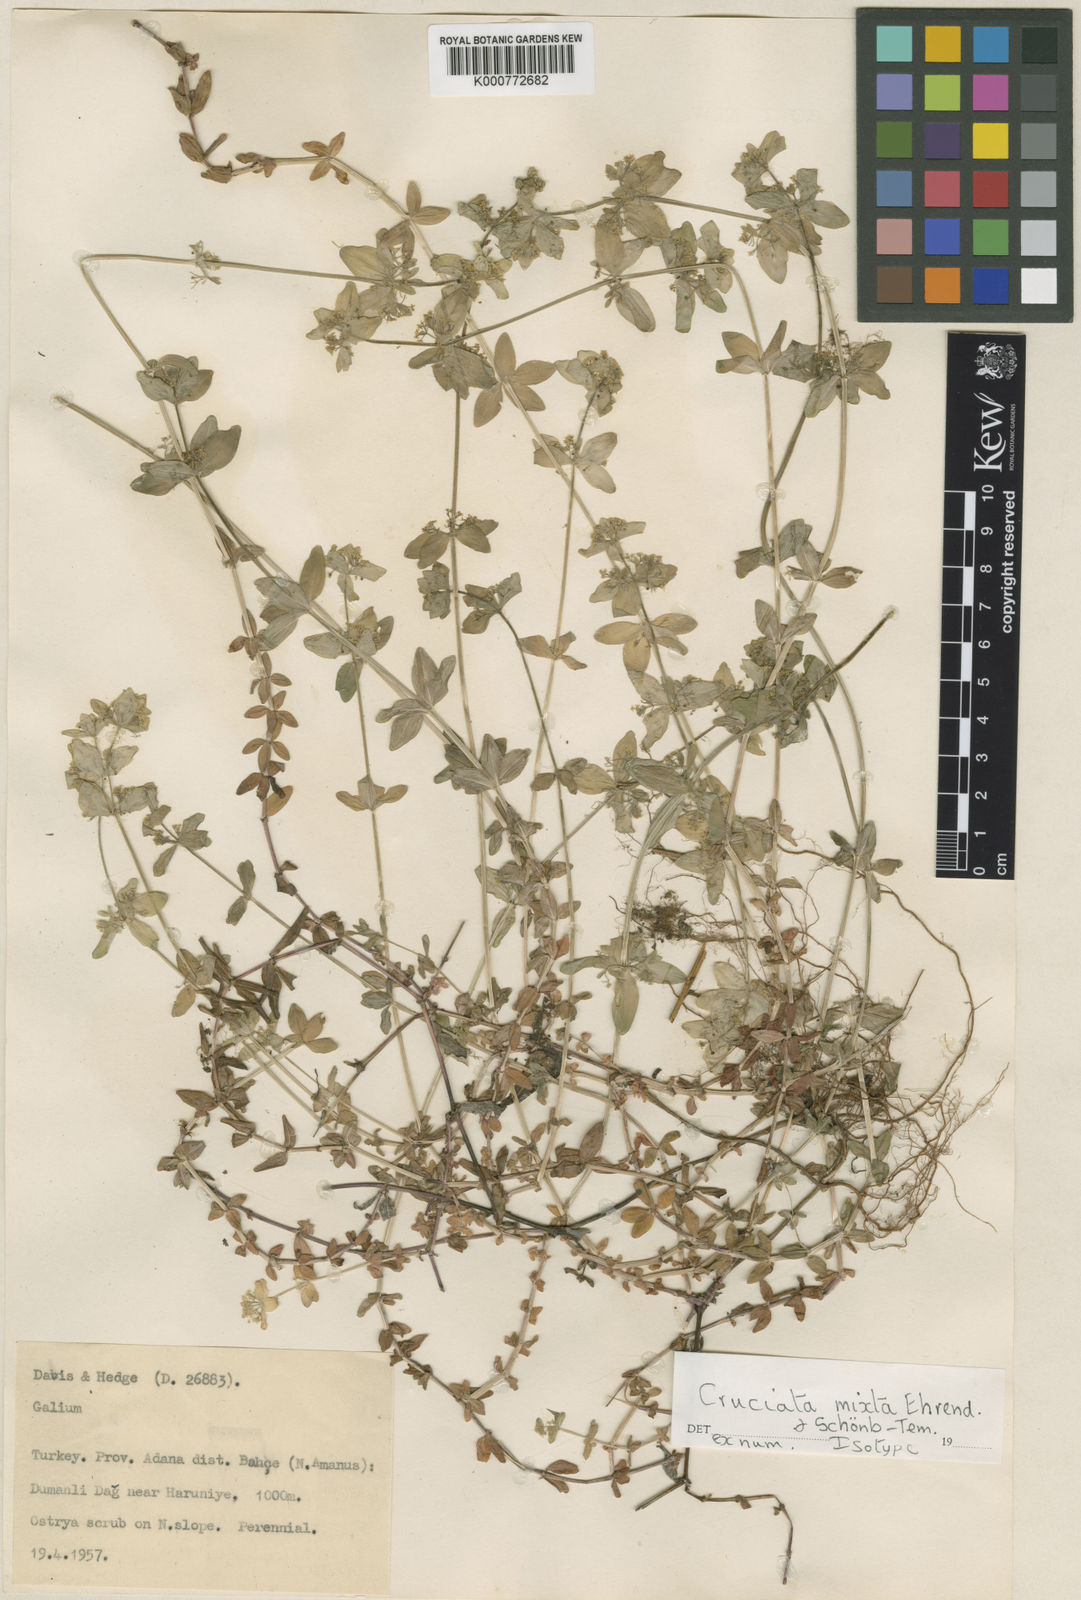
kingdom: Plantae
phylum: Tracheophyta
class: Magnoliopsida
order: Gentianales
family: Rubiaceae
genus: Cruciata
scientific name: Cruciata
